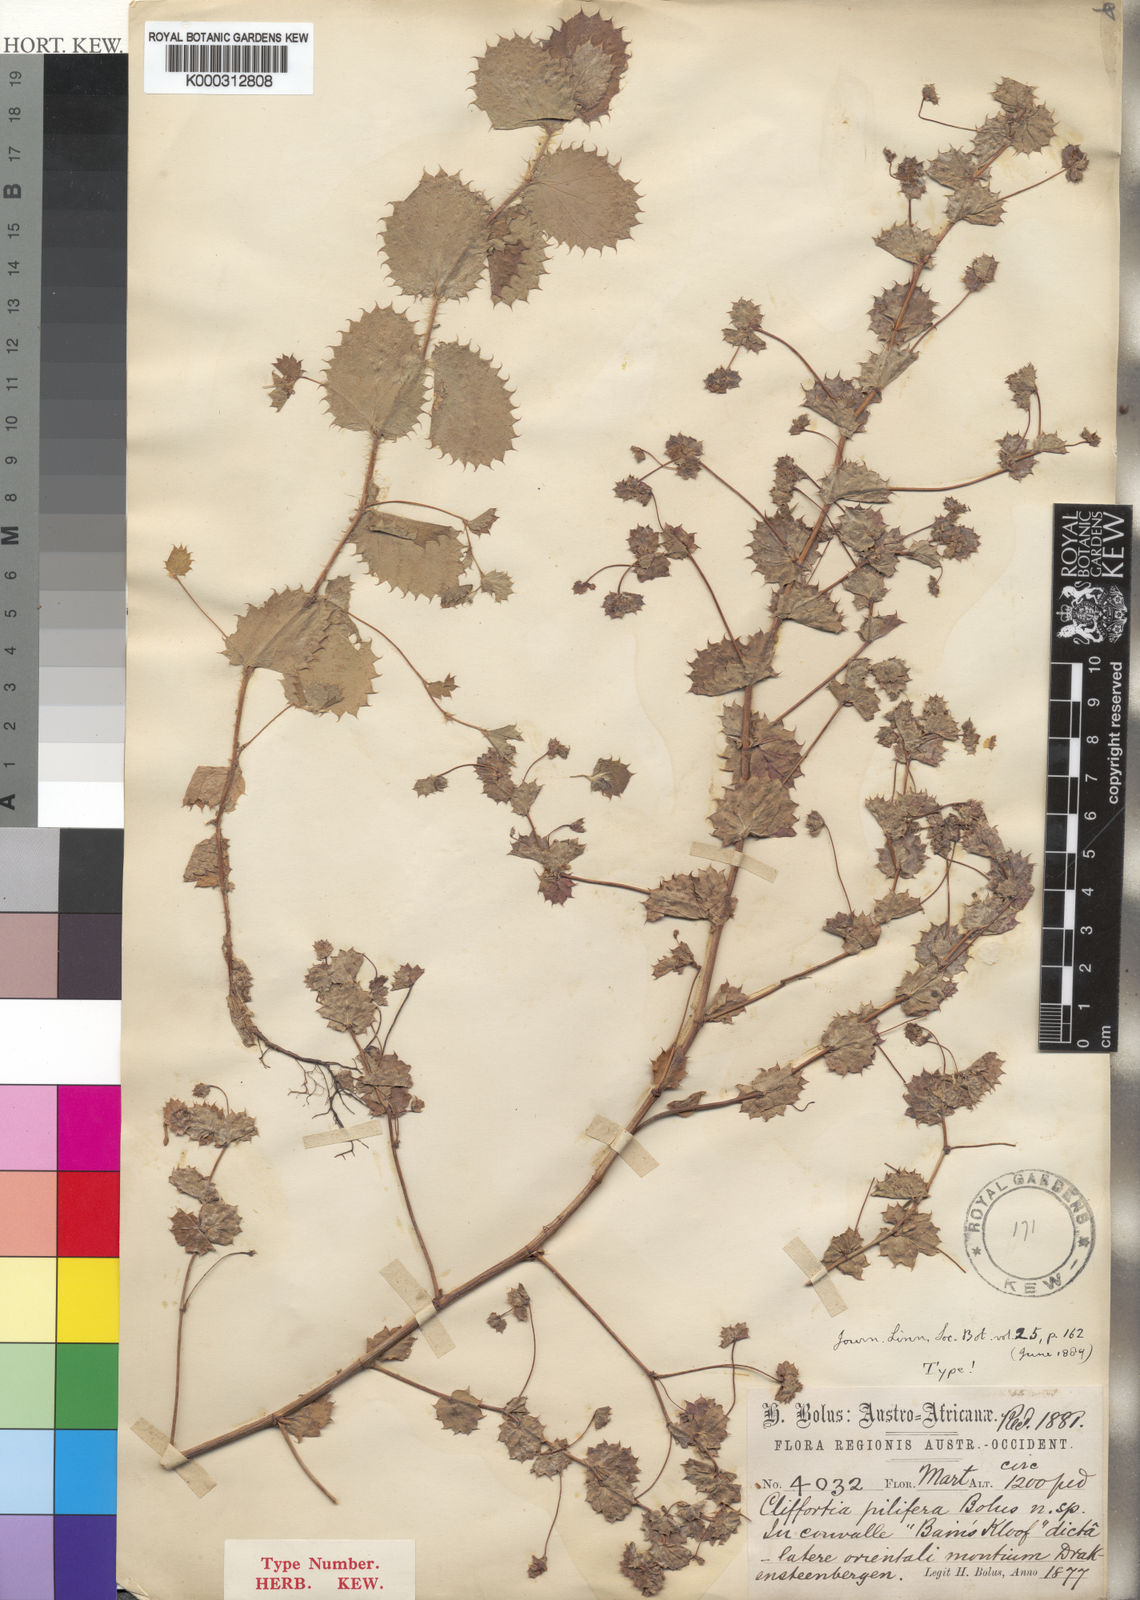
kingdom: Plantae
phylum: Tracheophyta
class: Magnoliopsida
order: Rosales
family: Rosaceae
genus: Cliffortia
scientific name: Cliffortia pilifera
